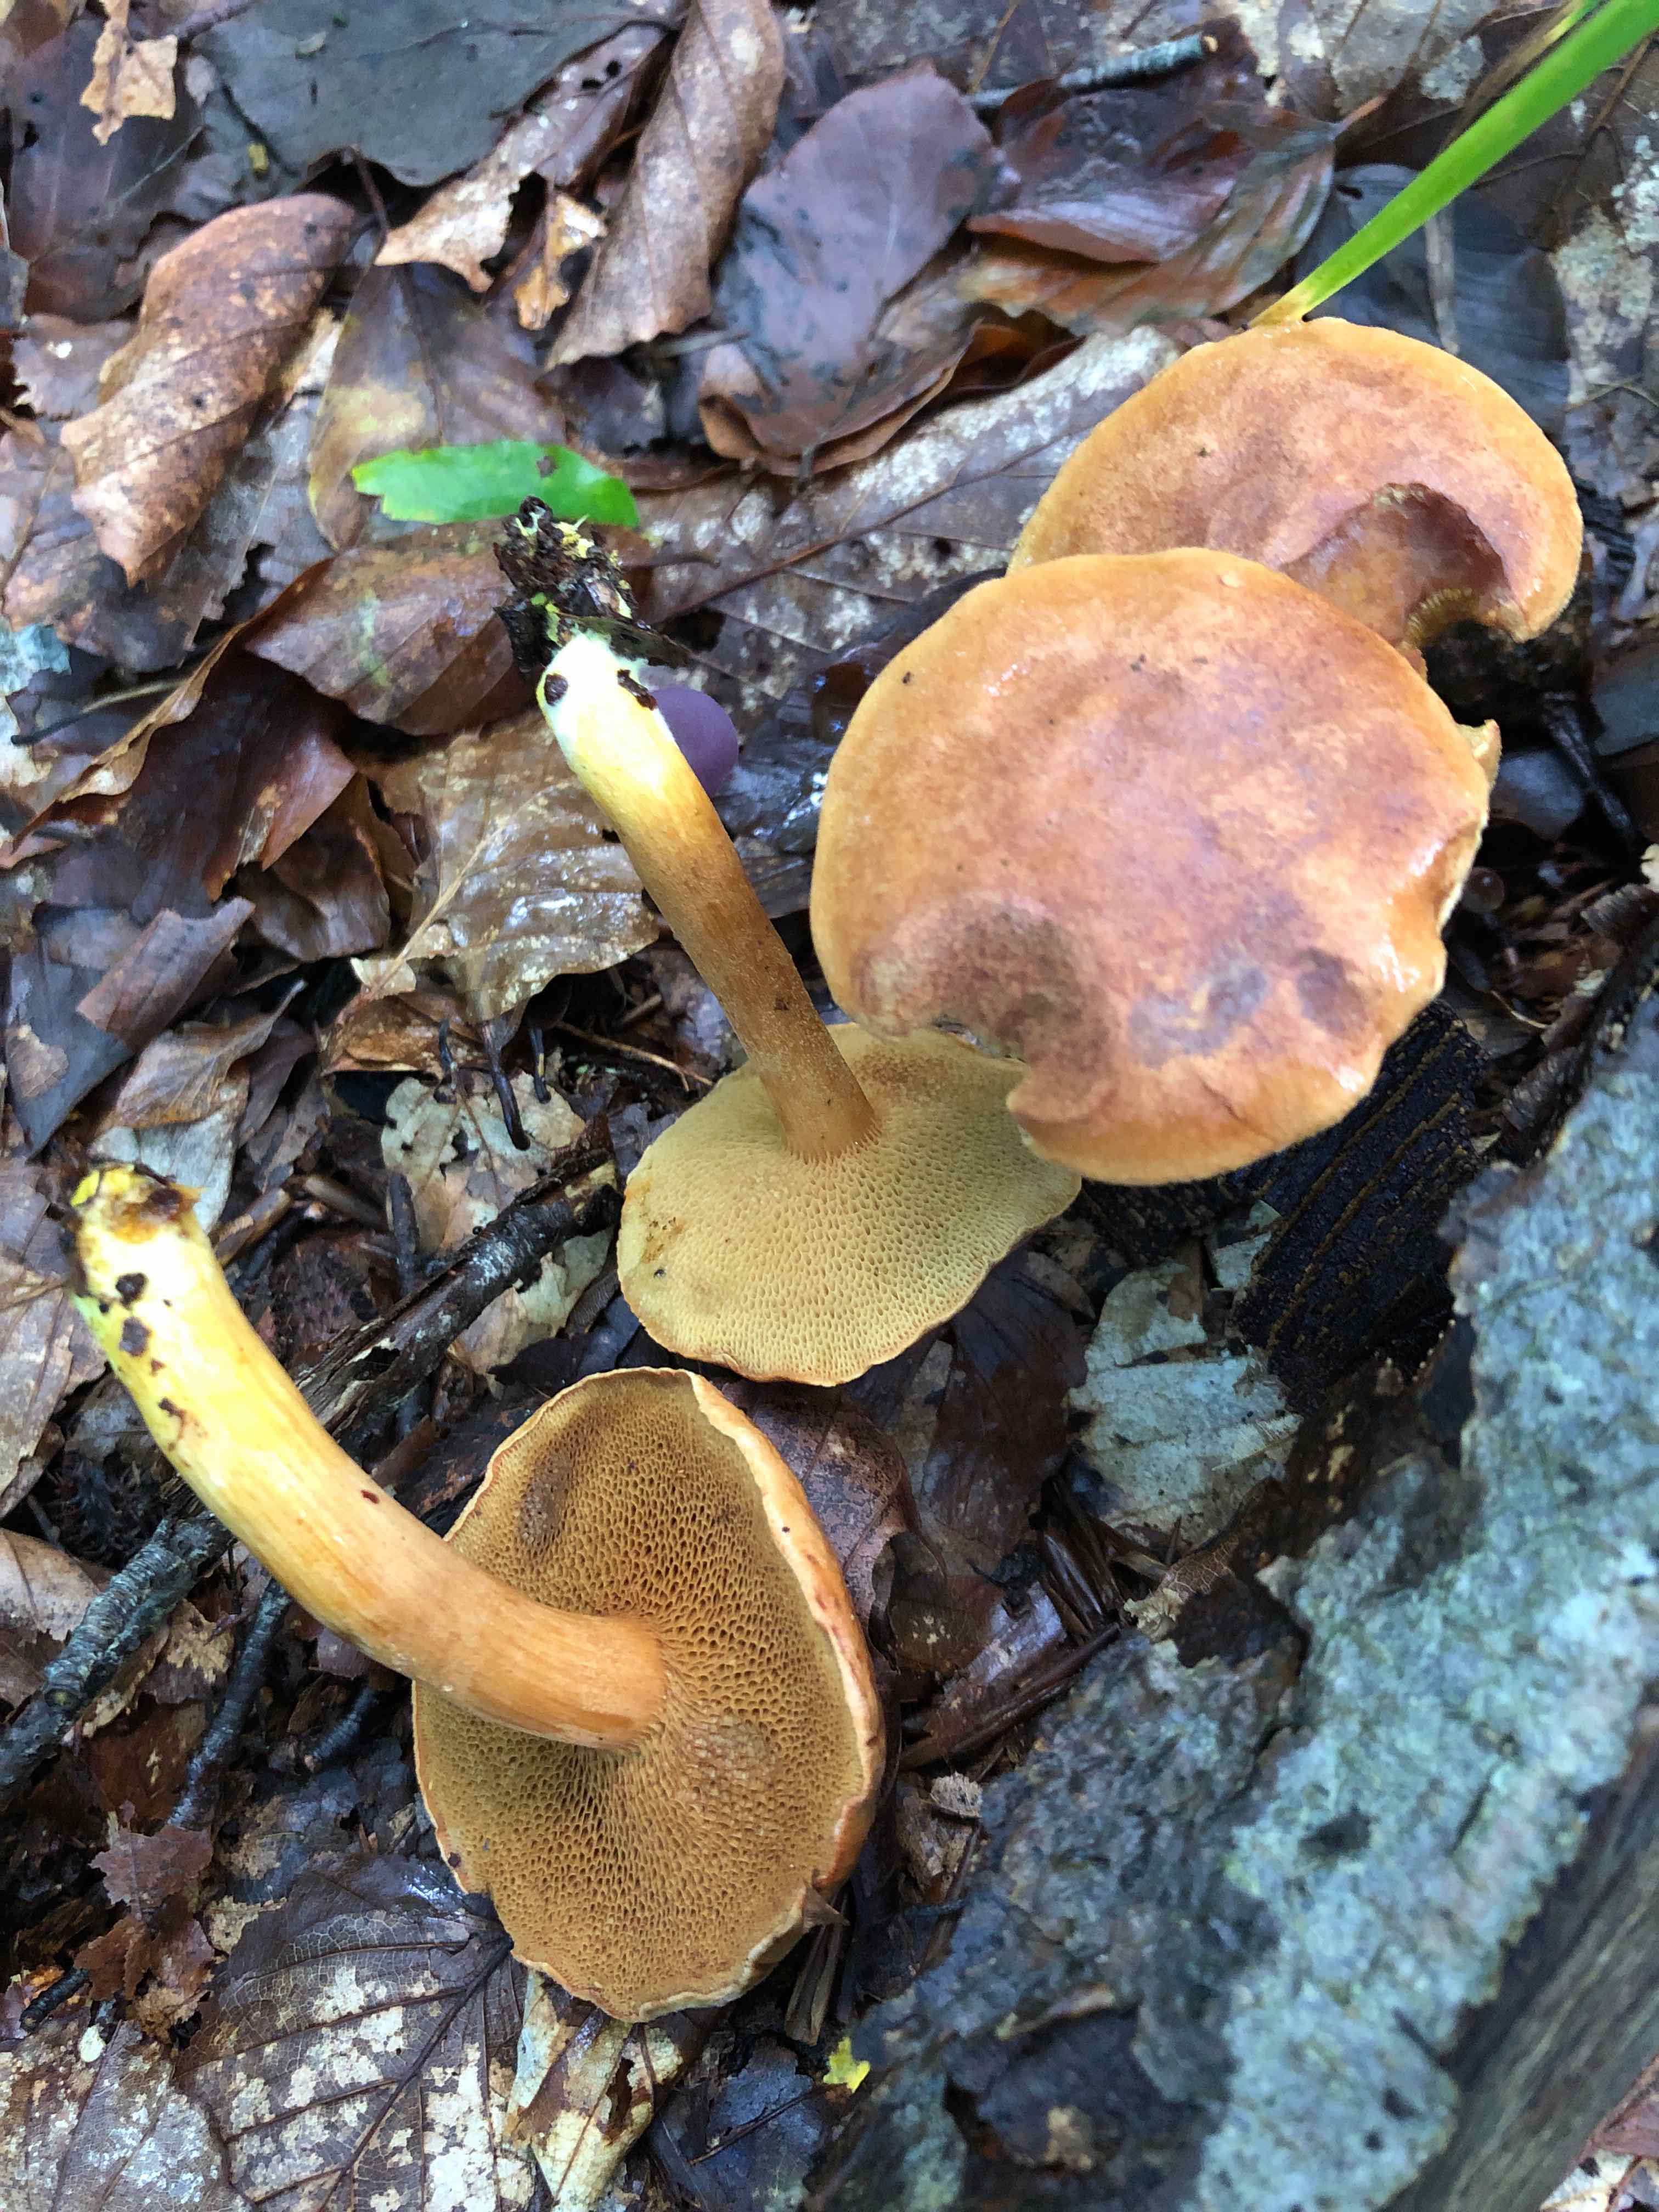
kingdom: Fungi
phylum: Basidiomycota
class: Agaricomycetes
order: Boletales
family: Boletaceae
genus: Chalciporus
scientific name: Chalciporus piperatus
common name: peberrørhat
